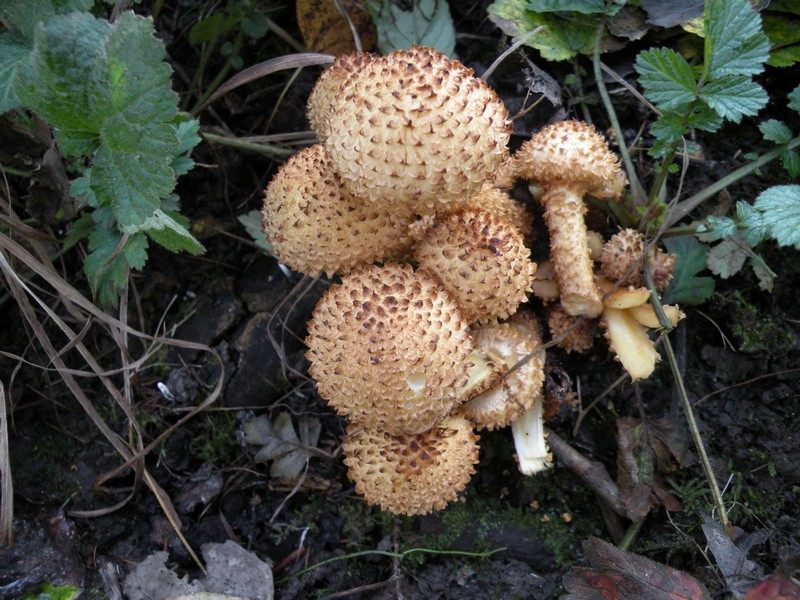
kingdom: Fungi
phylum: Basidiomycota
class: Agaricomycetes
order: Agaricales
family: Strophariaceae
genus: Pholiota
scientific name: Pholiota squarrosa
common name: krumskællet skælhat
